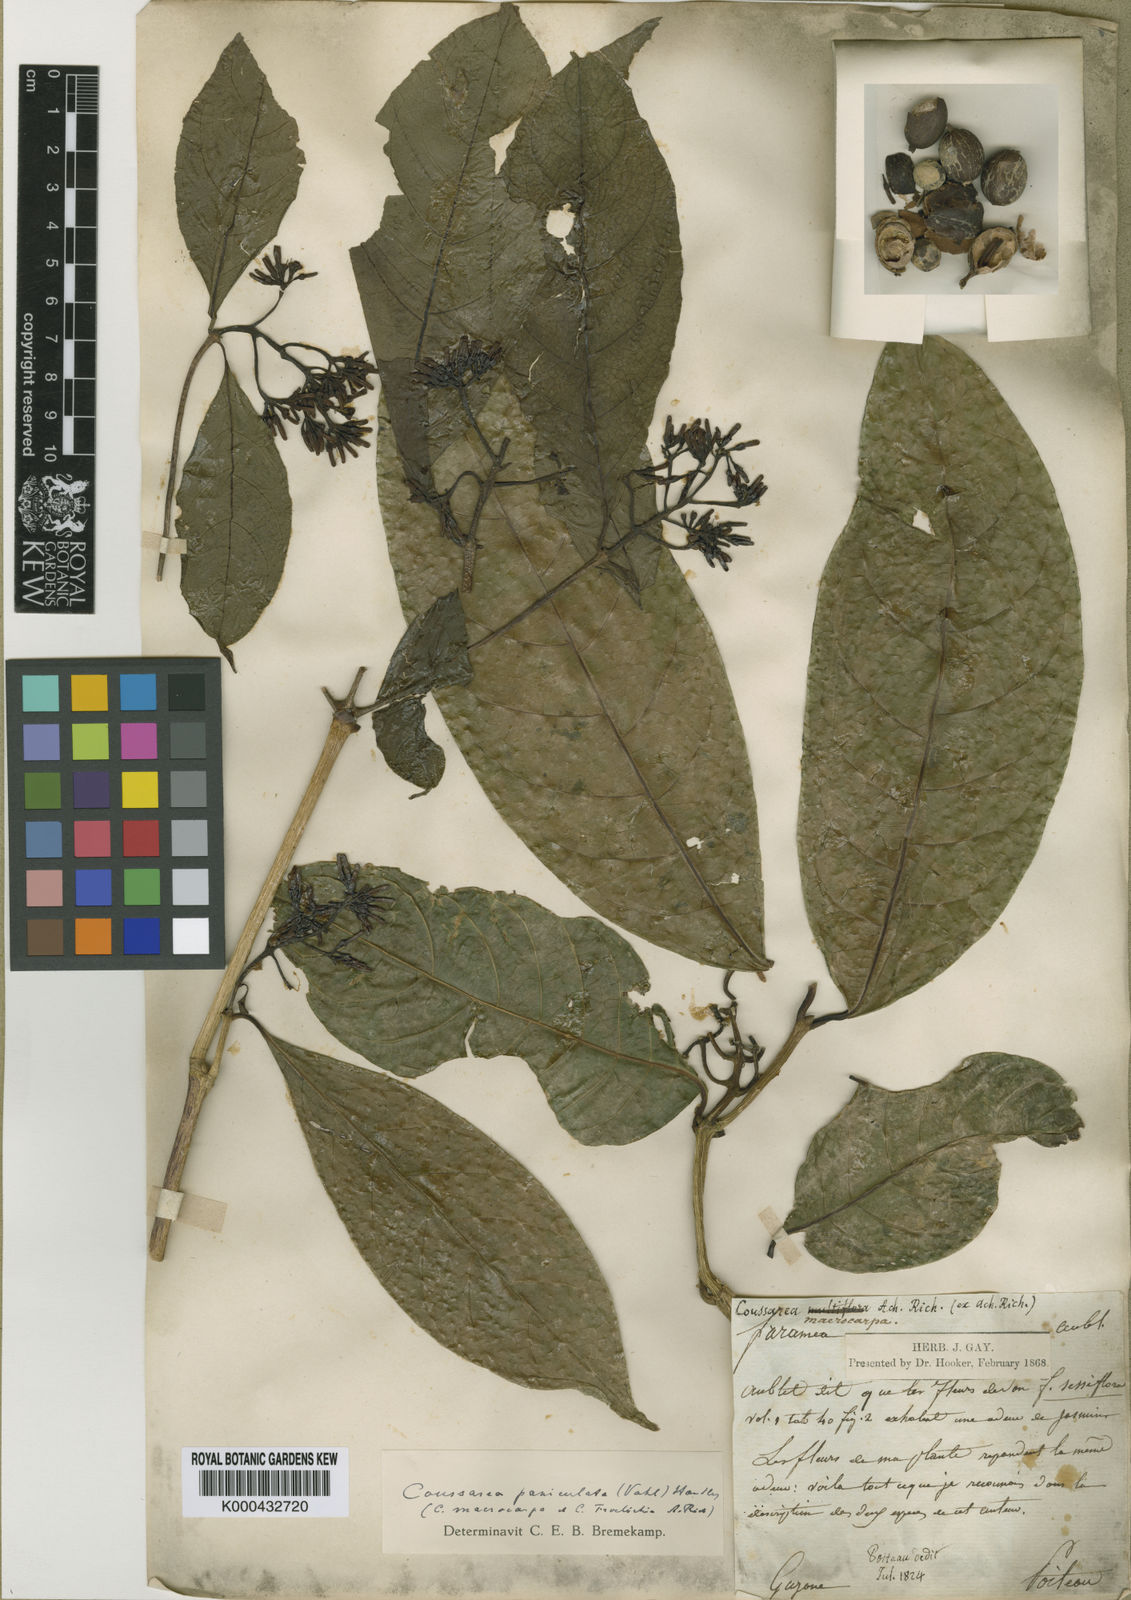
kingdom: Plantae
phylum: Tracheophyta
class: Magnoliopsida
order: Gentianales
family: Rubiaceae
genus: Coussarea
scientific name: Coussarea paniculata
